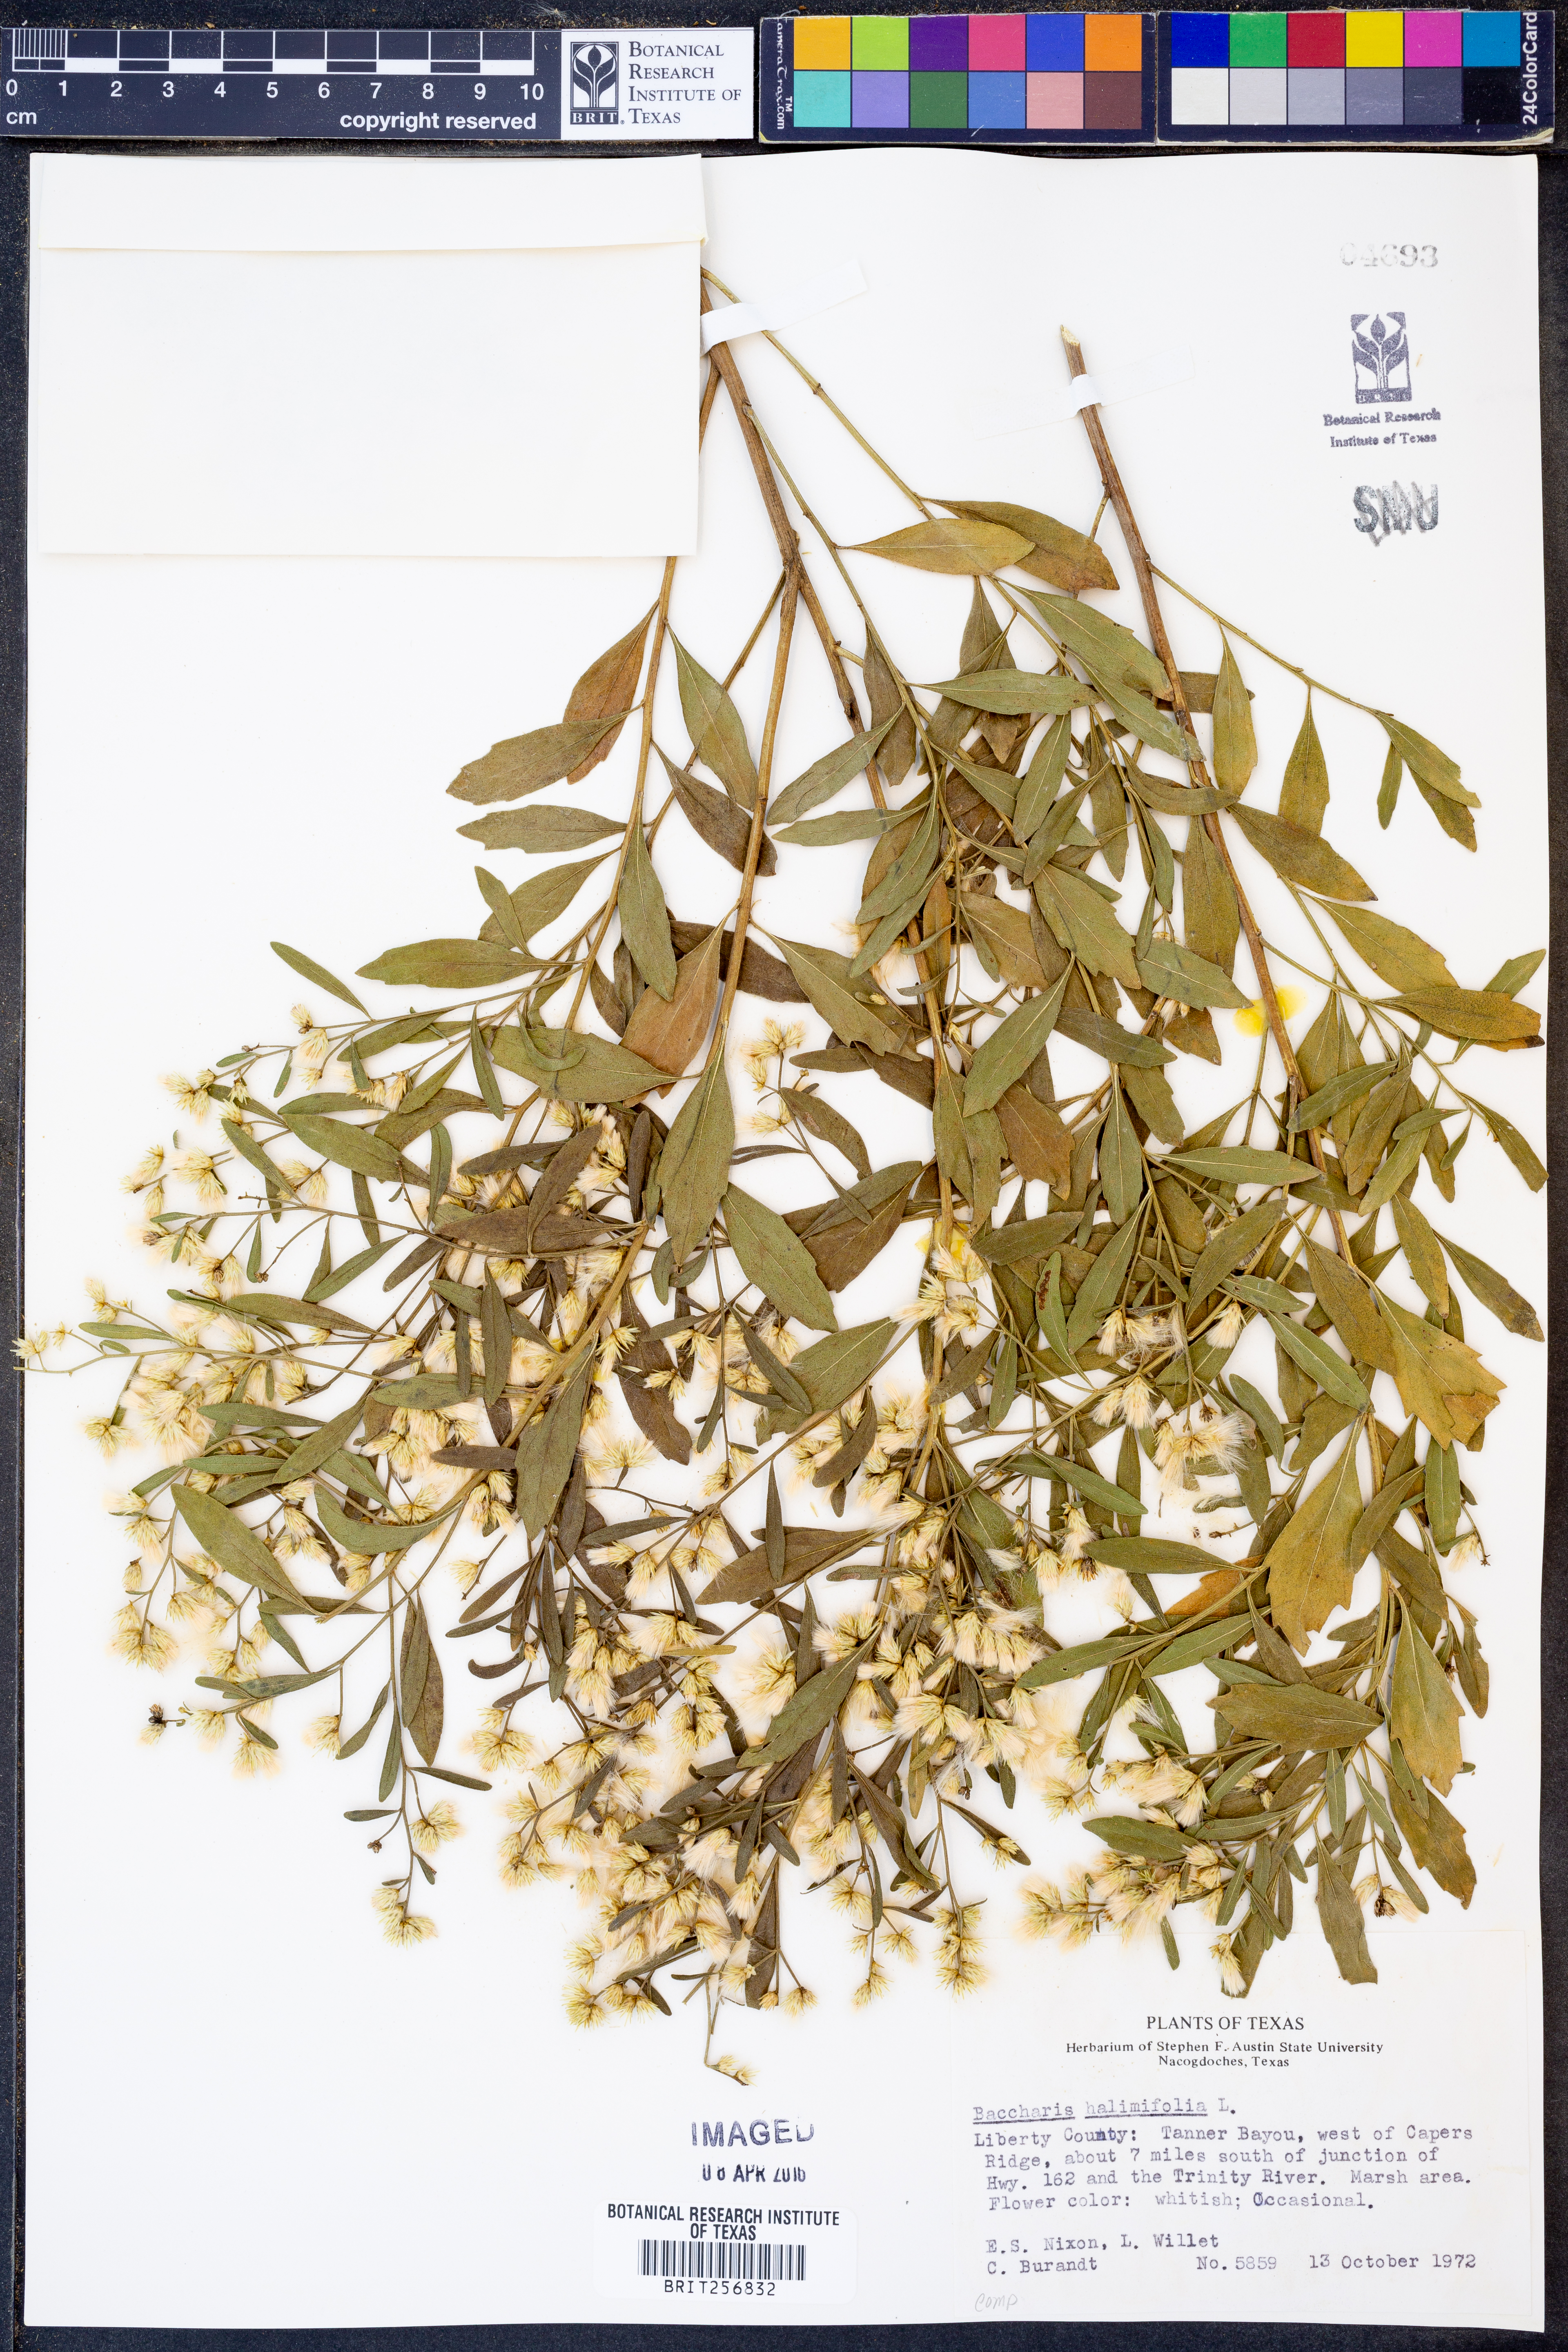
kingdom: Plantae
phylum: Tracheophyta
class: Magnoliopsida
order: Asterales
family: Asteraceae
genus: Nidorella
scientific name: Nidorella ivifolia
